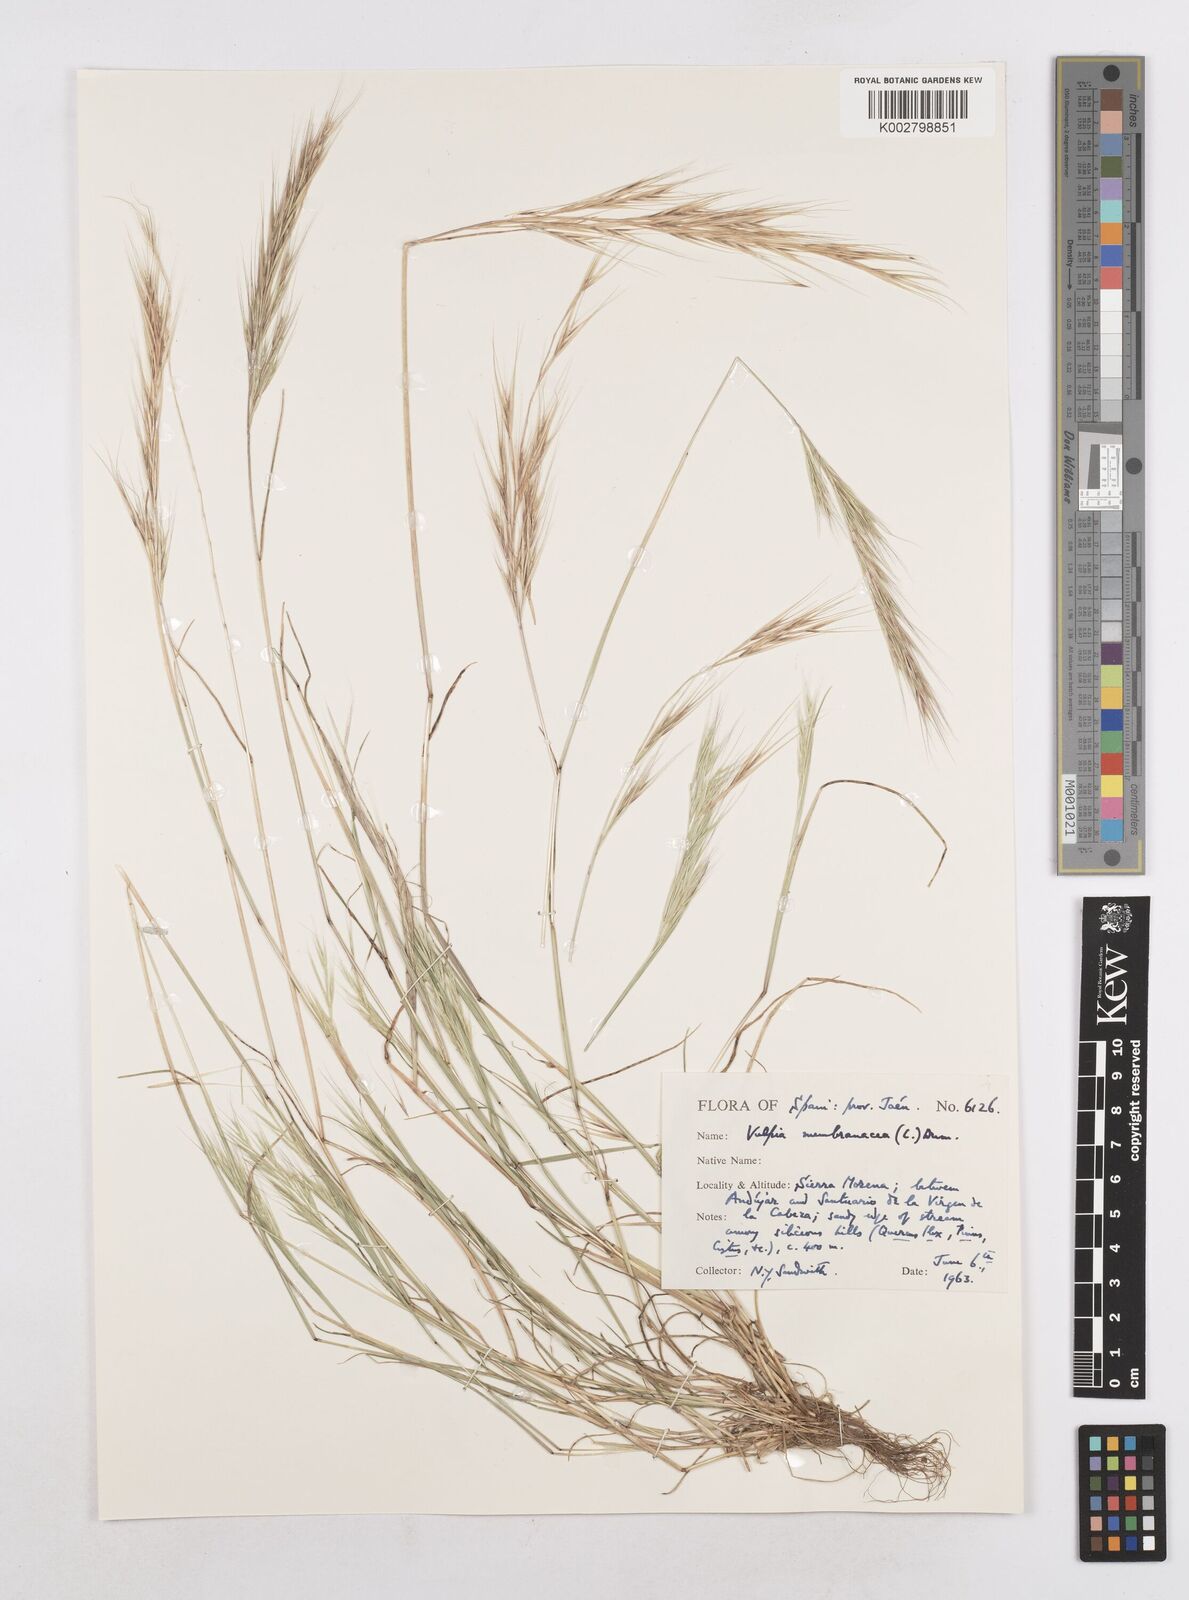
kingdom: Plantae
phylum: Tracheophyta
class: Liliopsida
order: Poales
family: Poaceae
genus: Festuca
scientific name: Festuca membranacea
